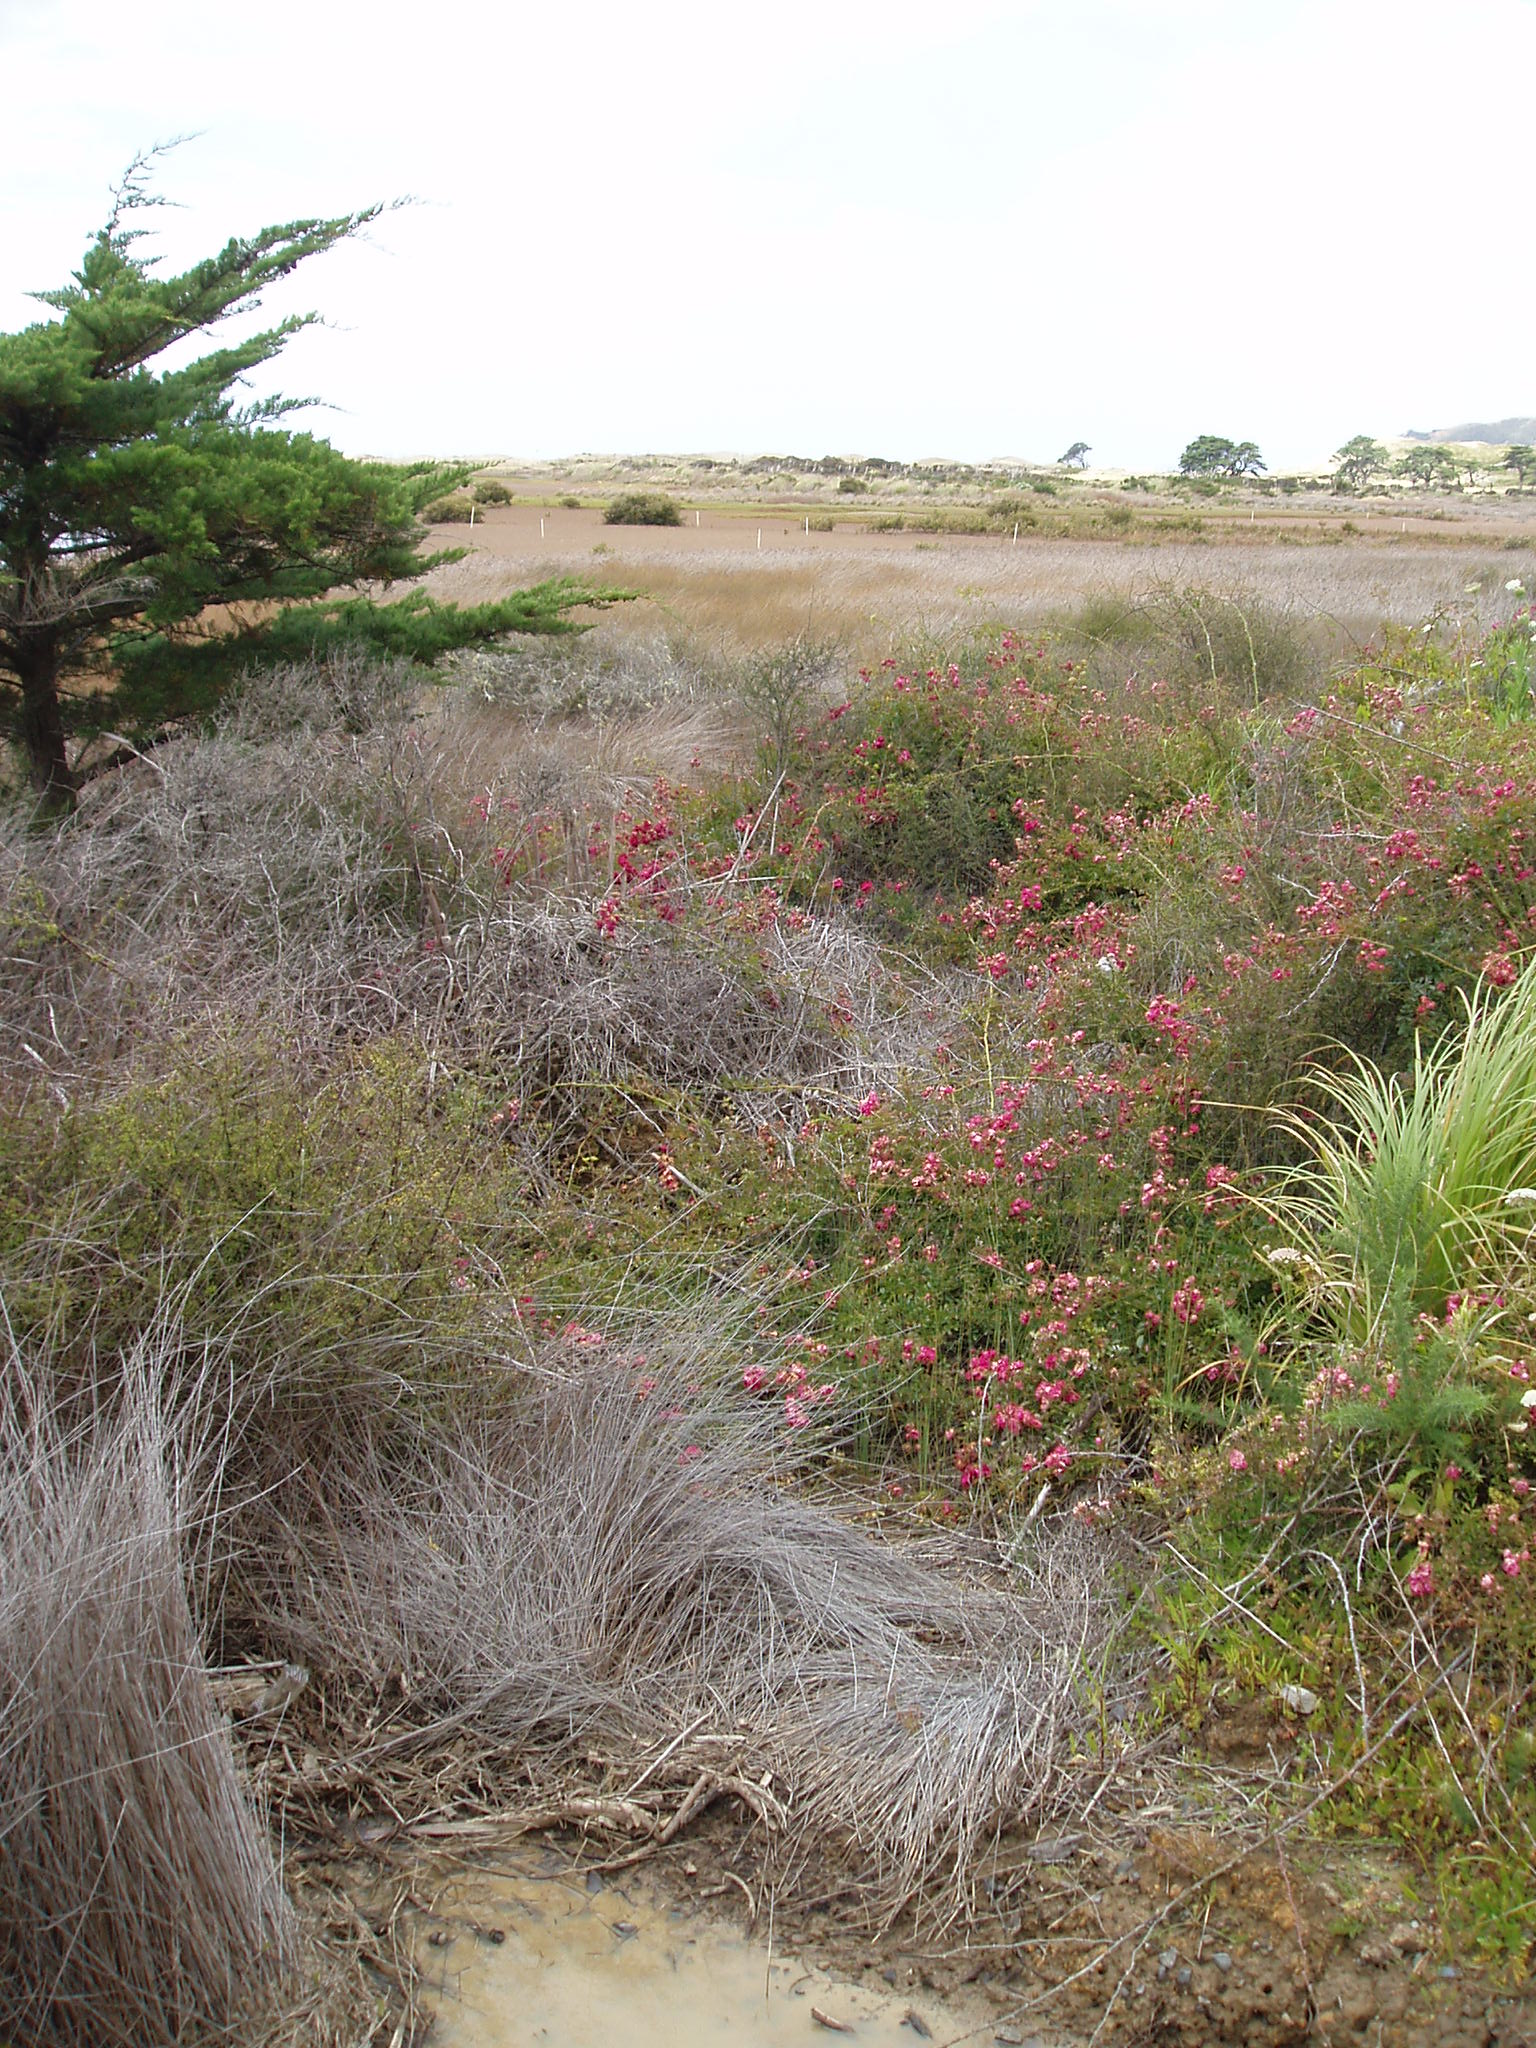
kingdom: Plantae
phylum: Tracheophyta
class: Magnoliopsida
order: Rosales
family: Rosaceae
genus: Rosa
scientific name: Rosa lucieae
